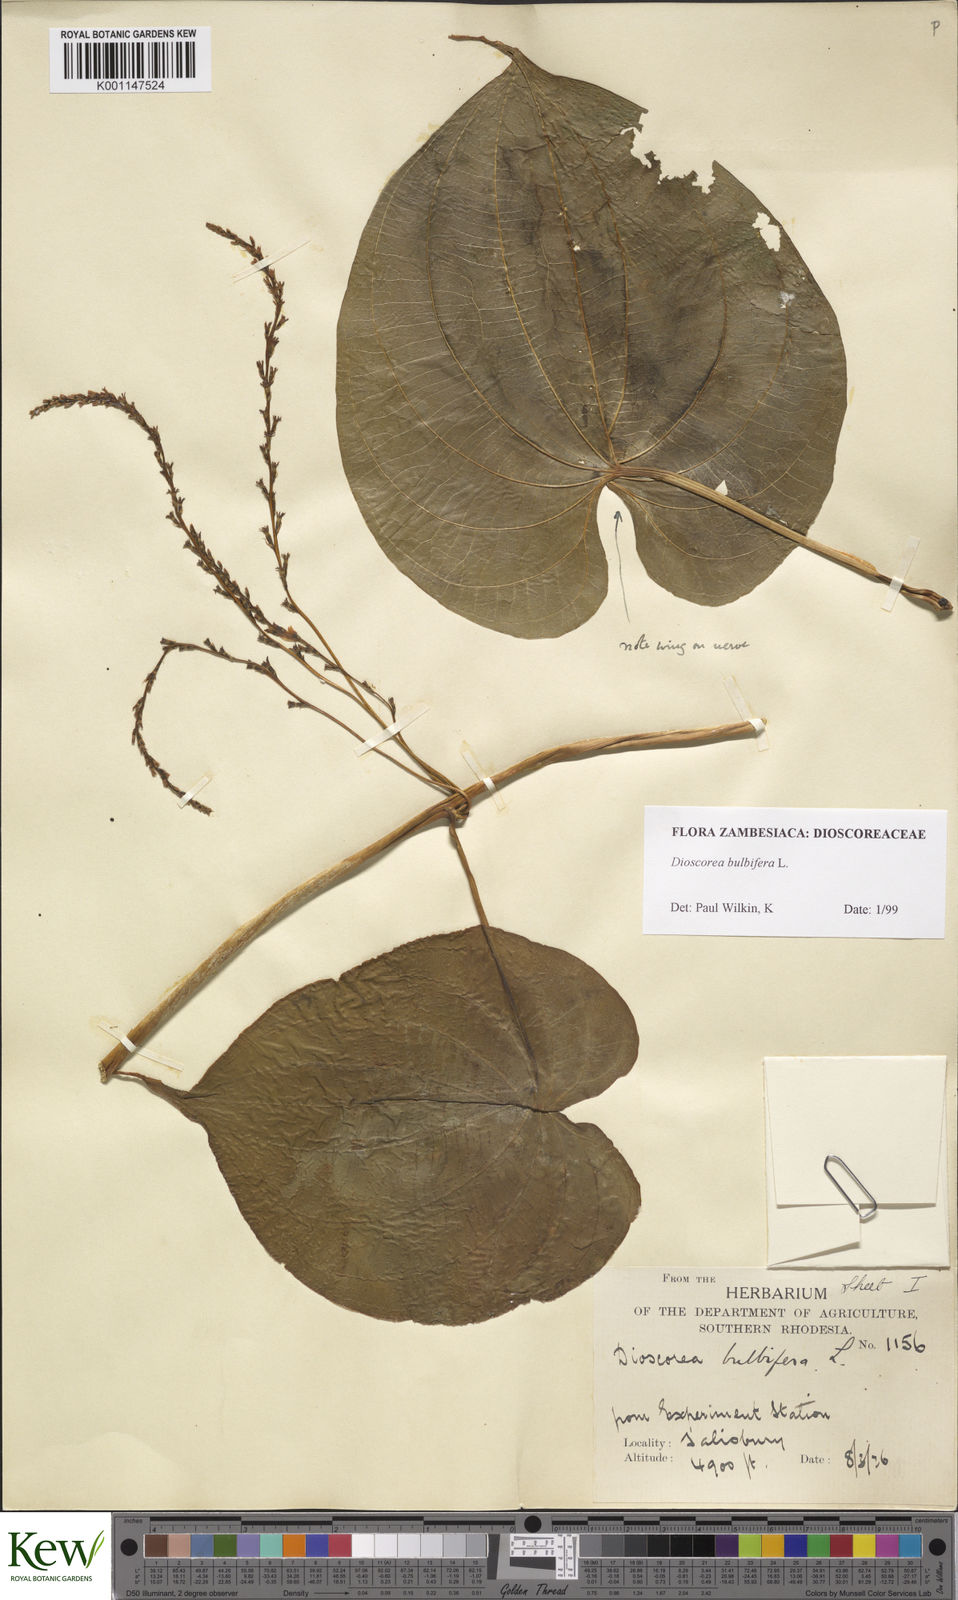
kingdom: Plantae
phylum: Tracheophyta
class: Liliopsida
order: Dioscoreales
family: Dioscoreaceae
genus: Dioscorea
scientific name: Dioscorea bulbifera
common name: Air yam
